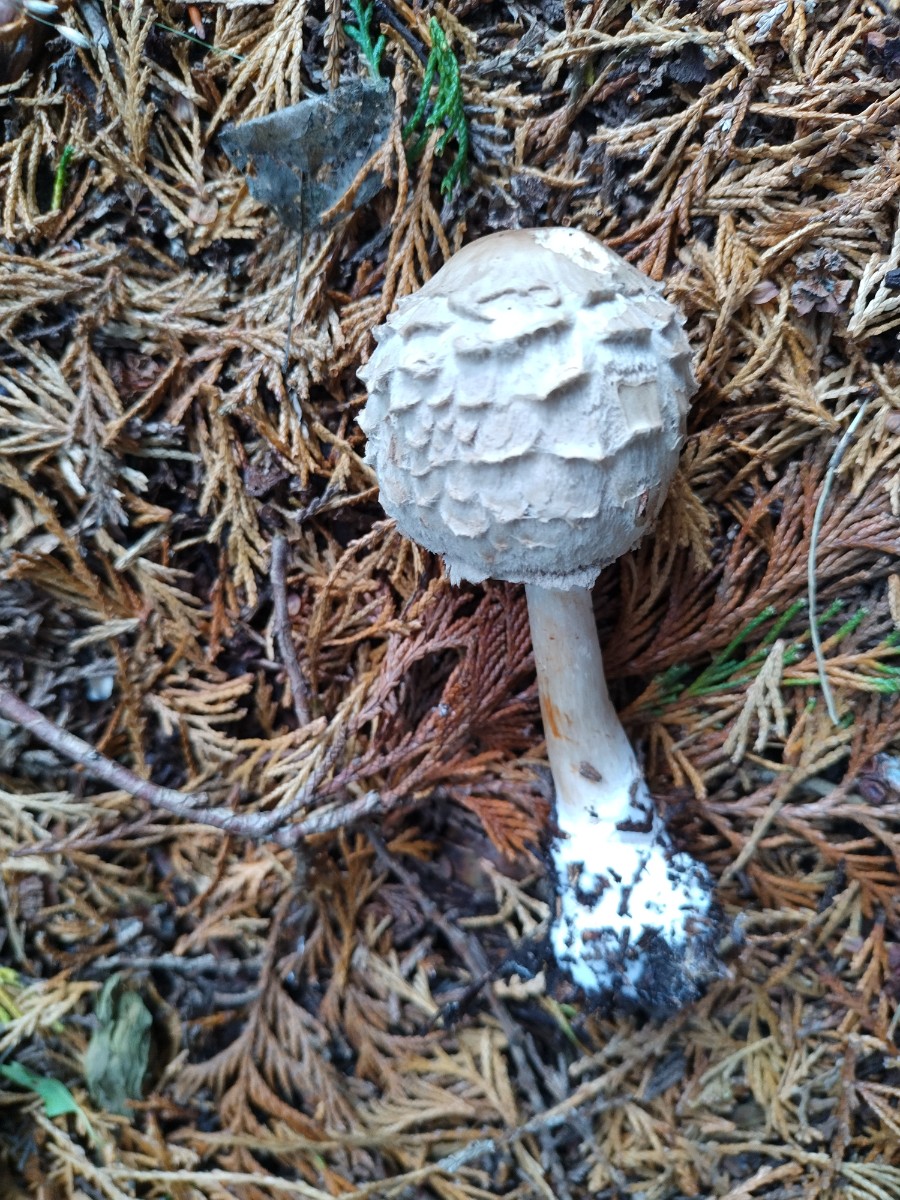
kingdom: Fungi
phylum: Basidiomycota
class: Agaricomycetes
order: Agaricales
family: Agaricaceae
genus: Chlorophyllum
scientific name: Chlorophyllum
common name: rabarberhat
